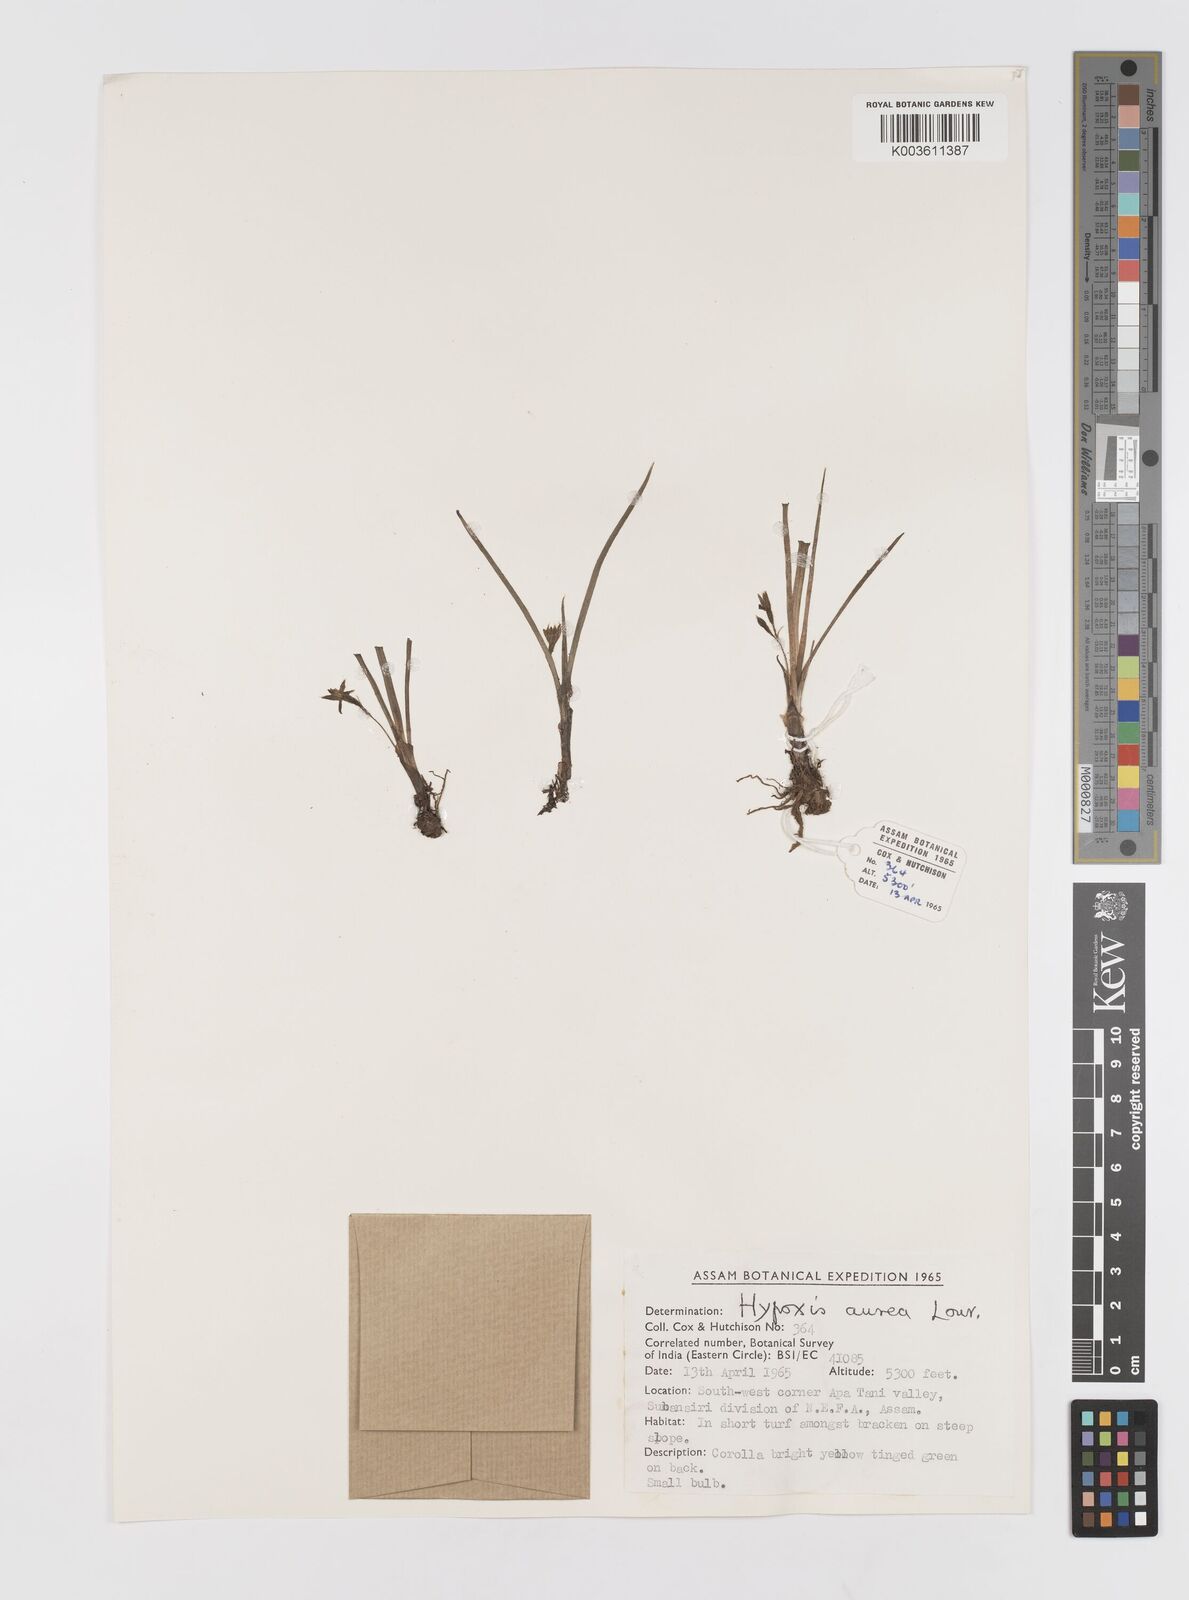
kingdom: Plantae
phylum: Tracheophyta
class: Liliopsida
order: Asparagales
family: Hypoxidaceae
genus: Hypoxis
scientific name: Hypoxis aurea
